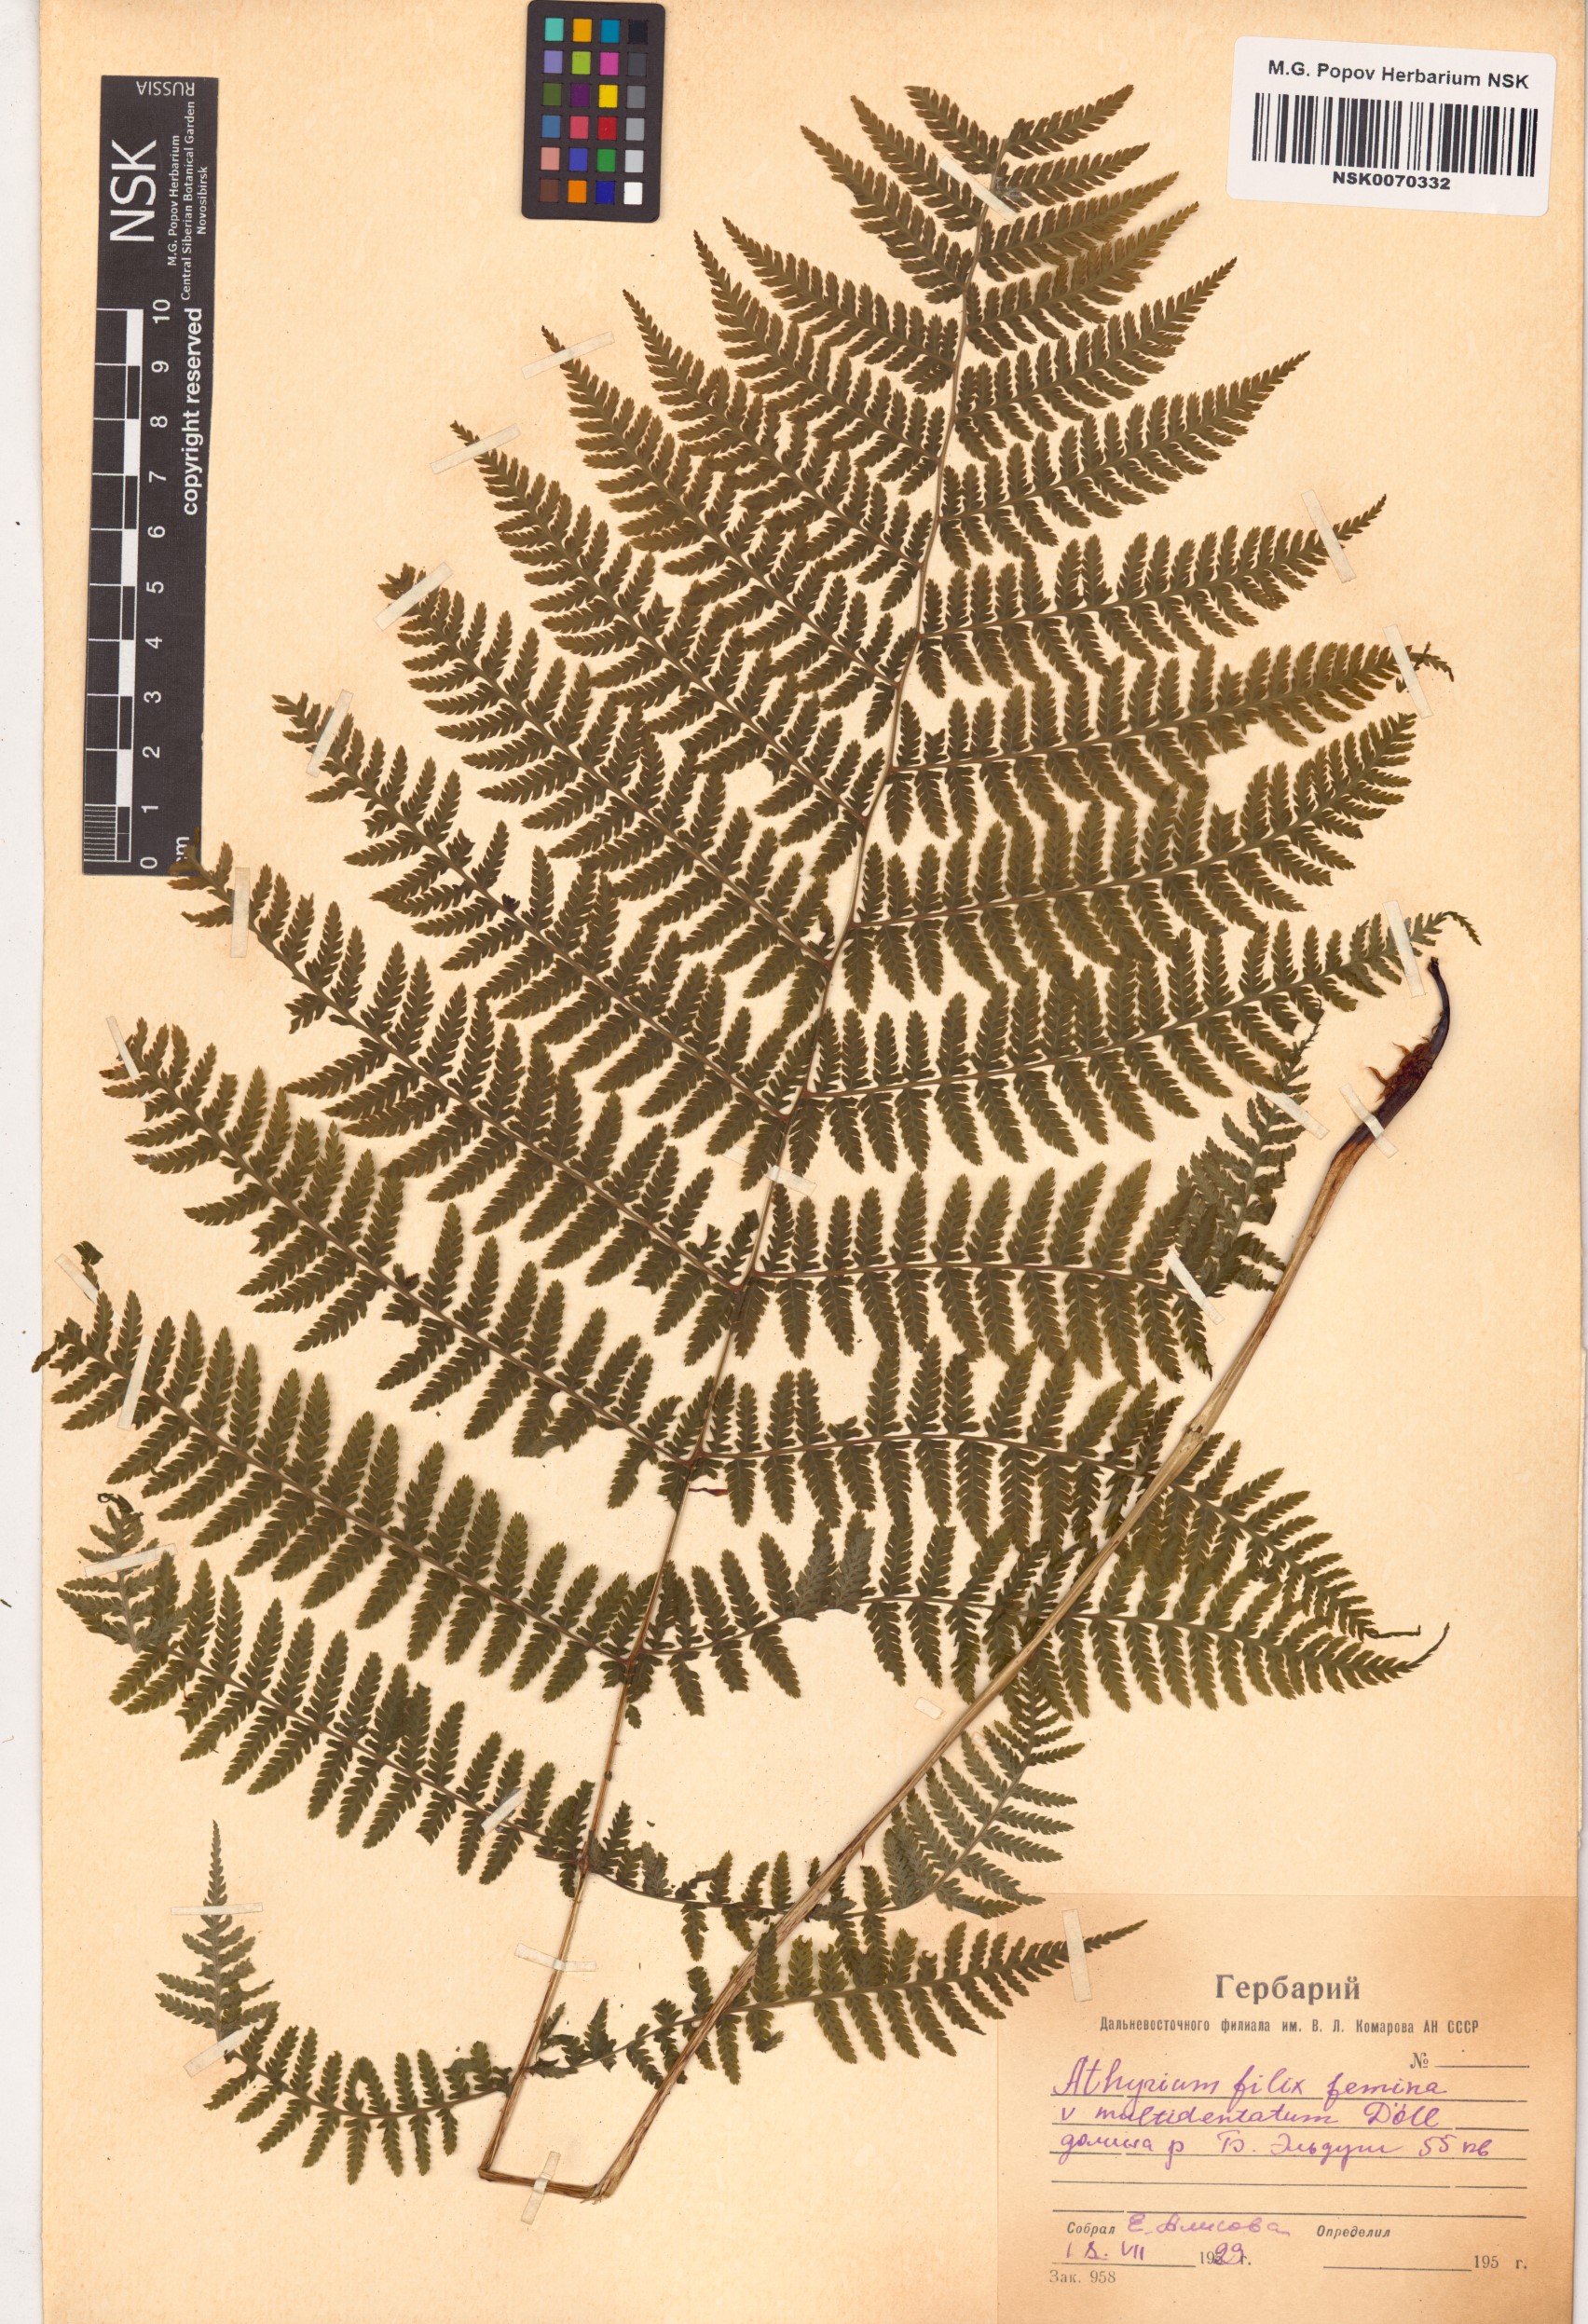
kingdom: Plantae
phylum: Tracheophyta
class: Polypodiopsida
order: Polypodiales
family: Athyriaceae
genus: Athyrium
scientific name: Athyrium filix-femina
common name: Lady fern
